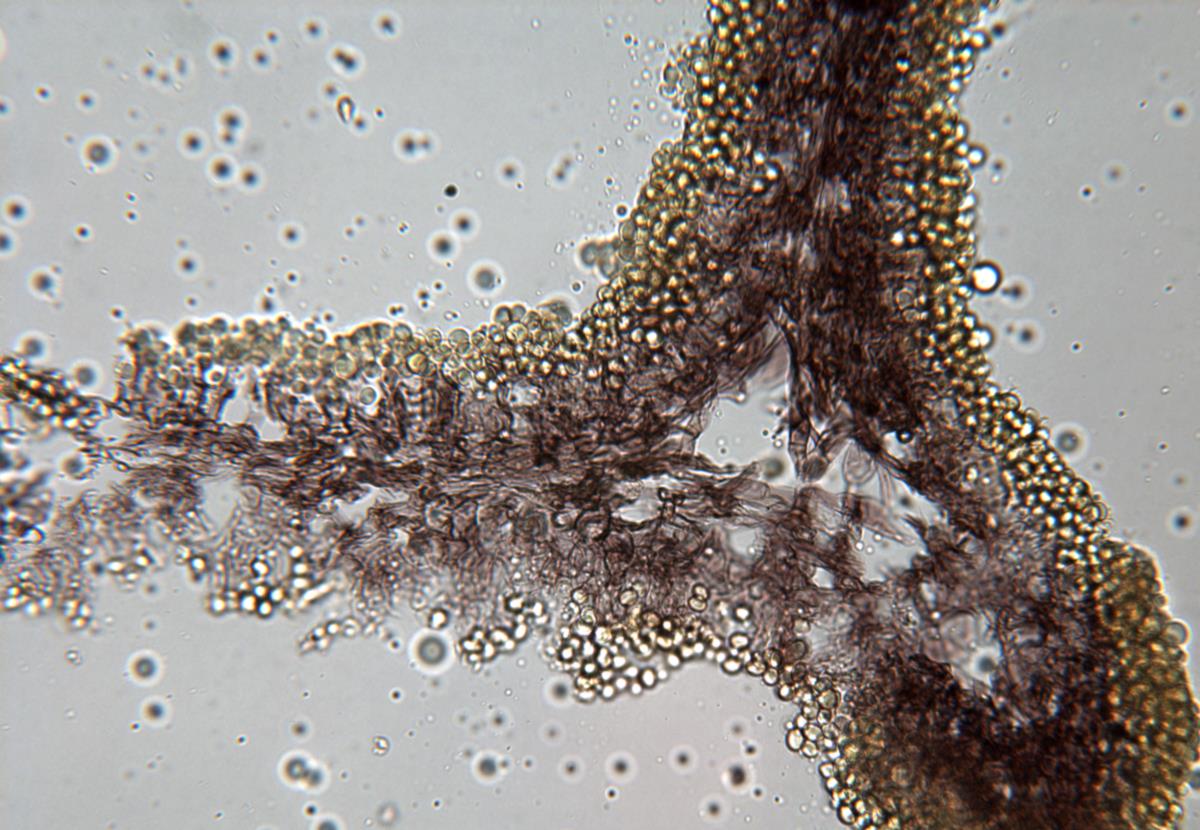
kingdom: Fungi
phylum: Basidiomycota
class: Agaricomycetes
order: Boletales
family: Boletaceae
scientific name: Boletaceae
